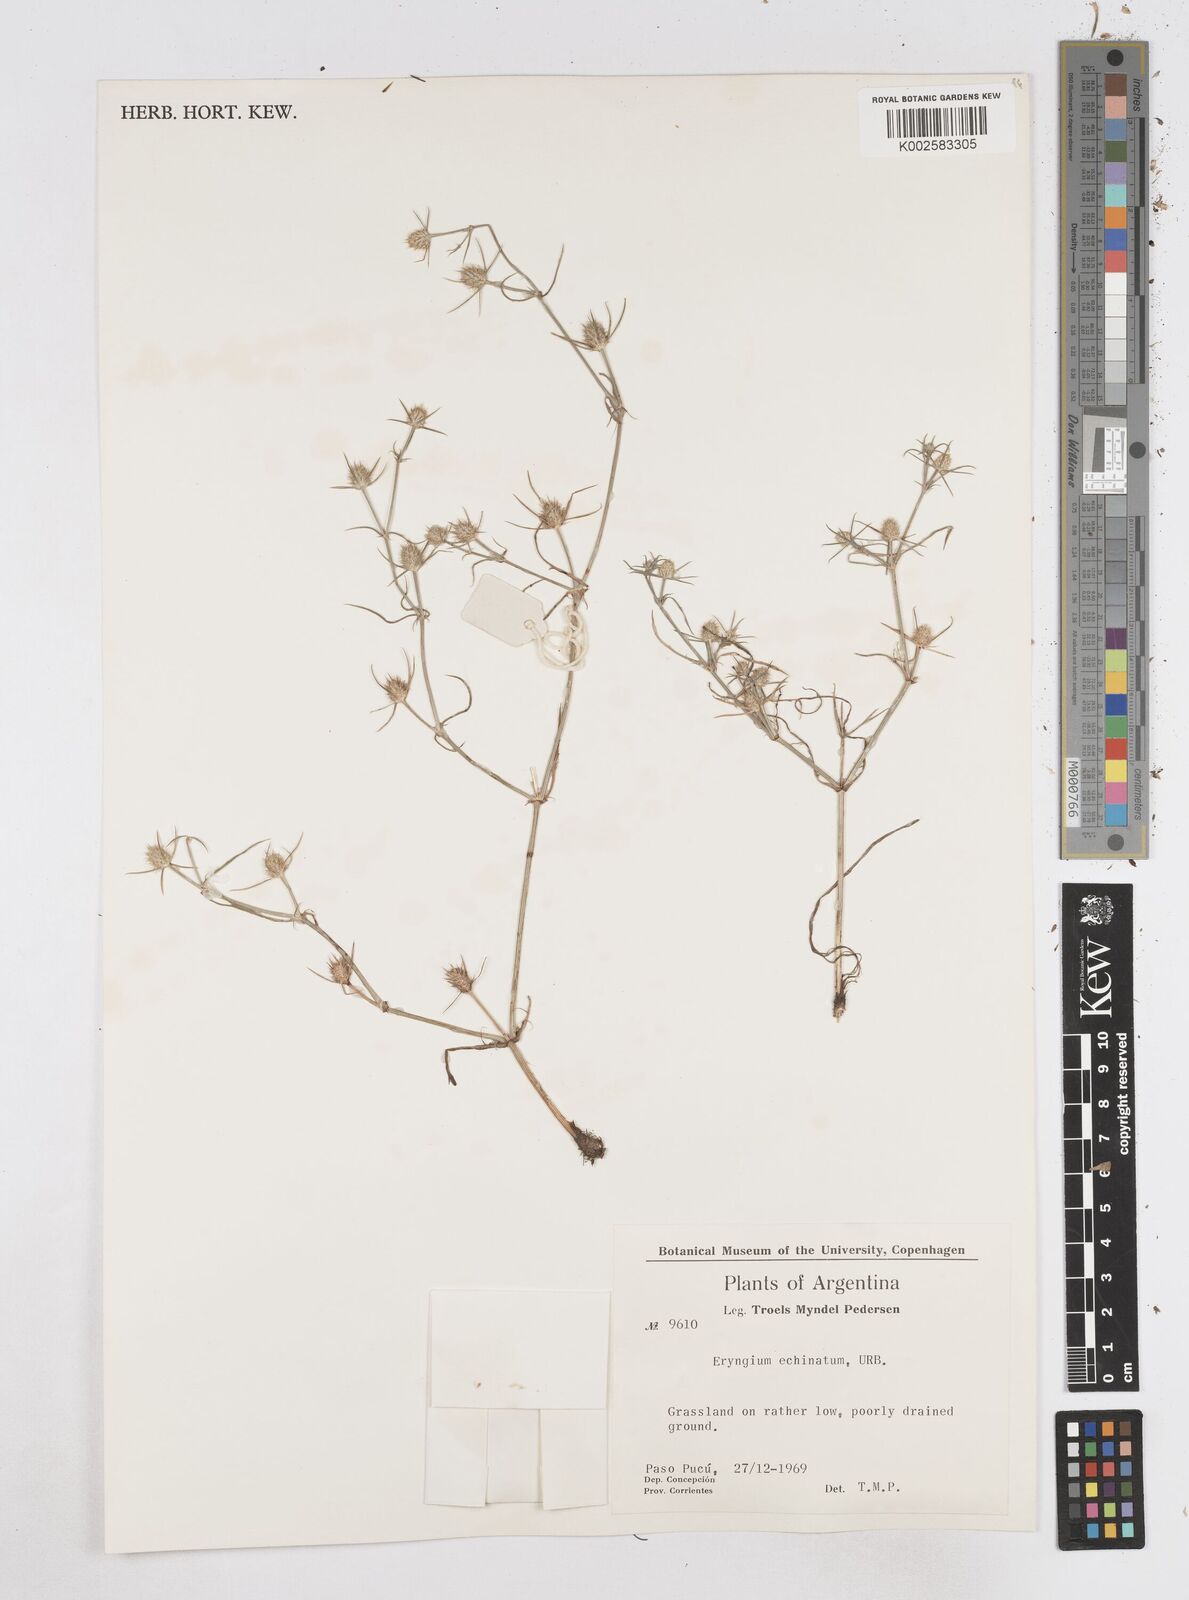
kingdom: Plantae
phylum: Tracheophyta
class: Magnoliopsida
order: Apiales
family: Apiaceae
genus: Eryngium
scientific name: Eryngium echinatum
